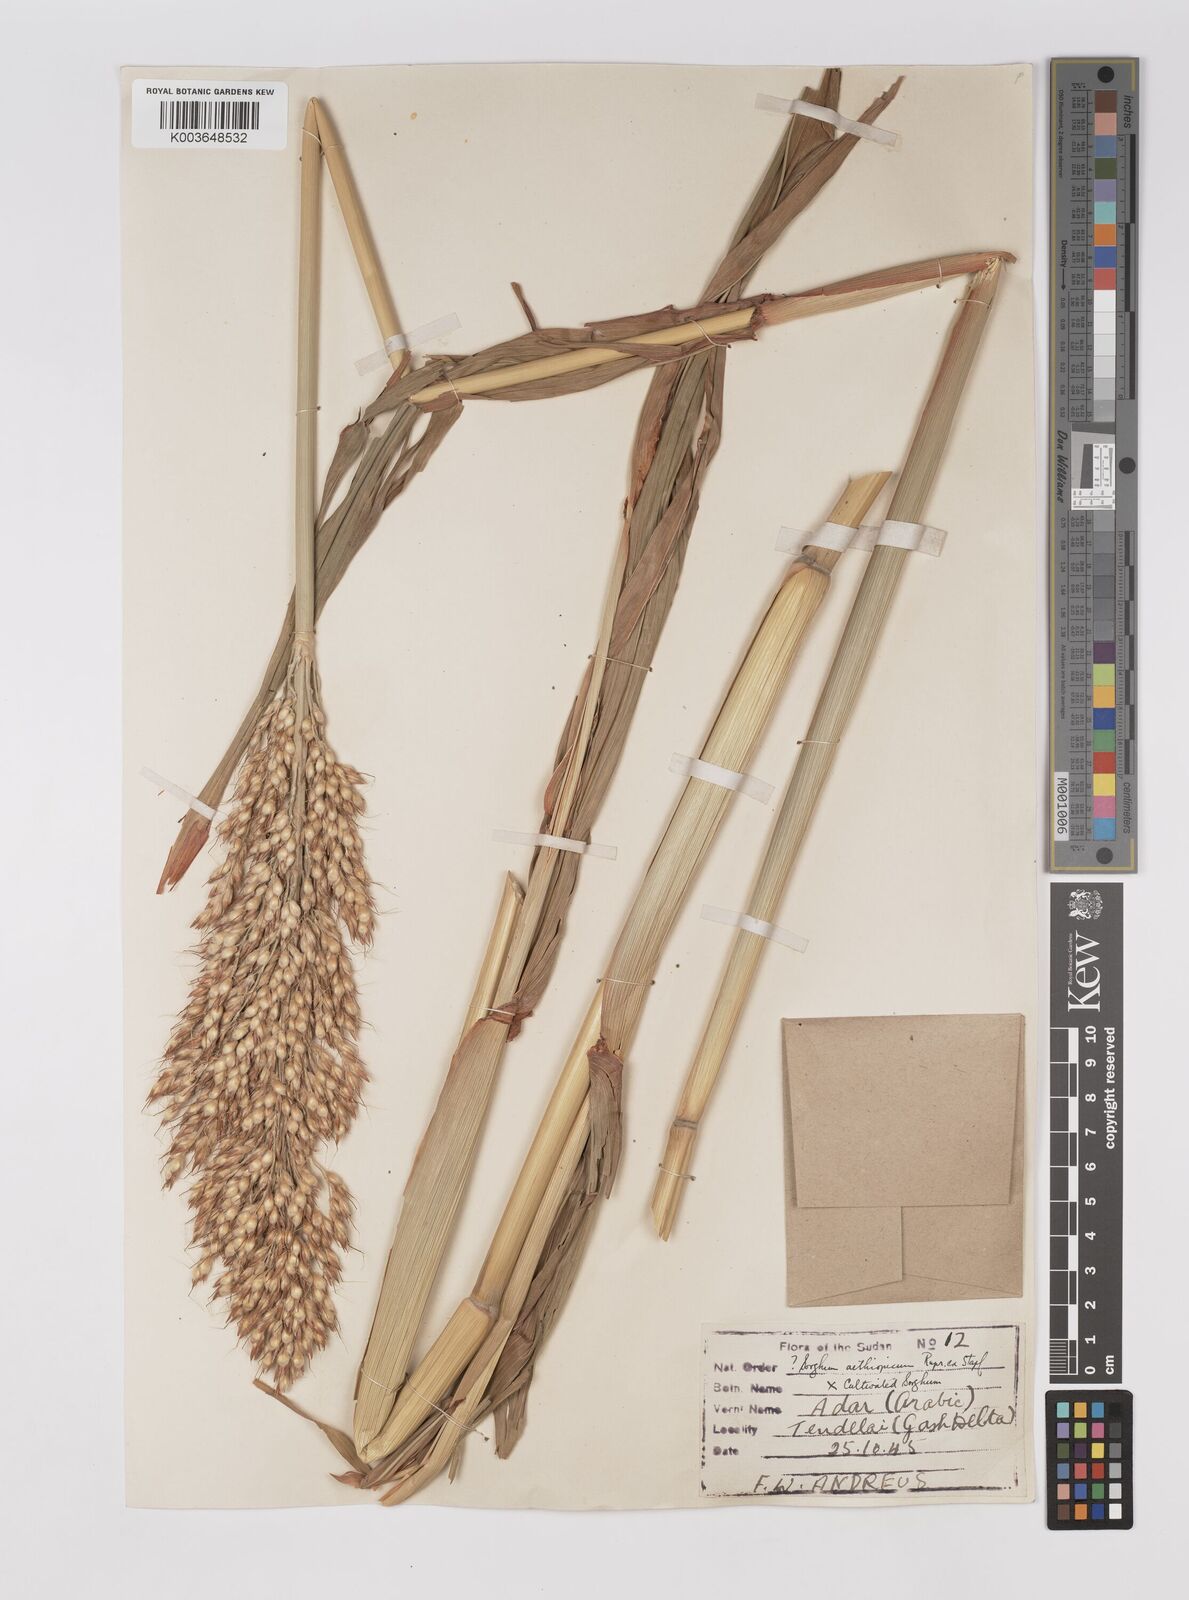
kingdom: Plantae
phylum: Tracheophyta
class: Liliopsida
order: Poales
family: Poaceae
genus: Sorghum
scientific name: Sorghum drummondii
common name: Sudangrass
